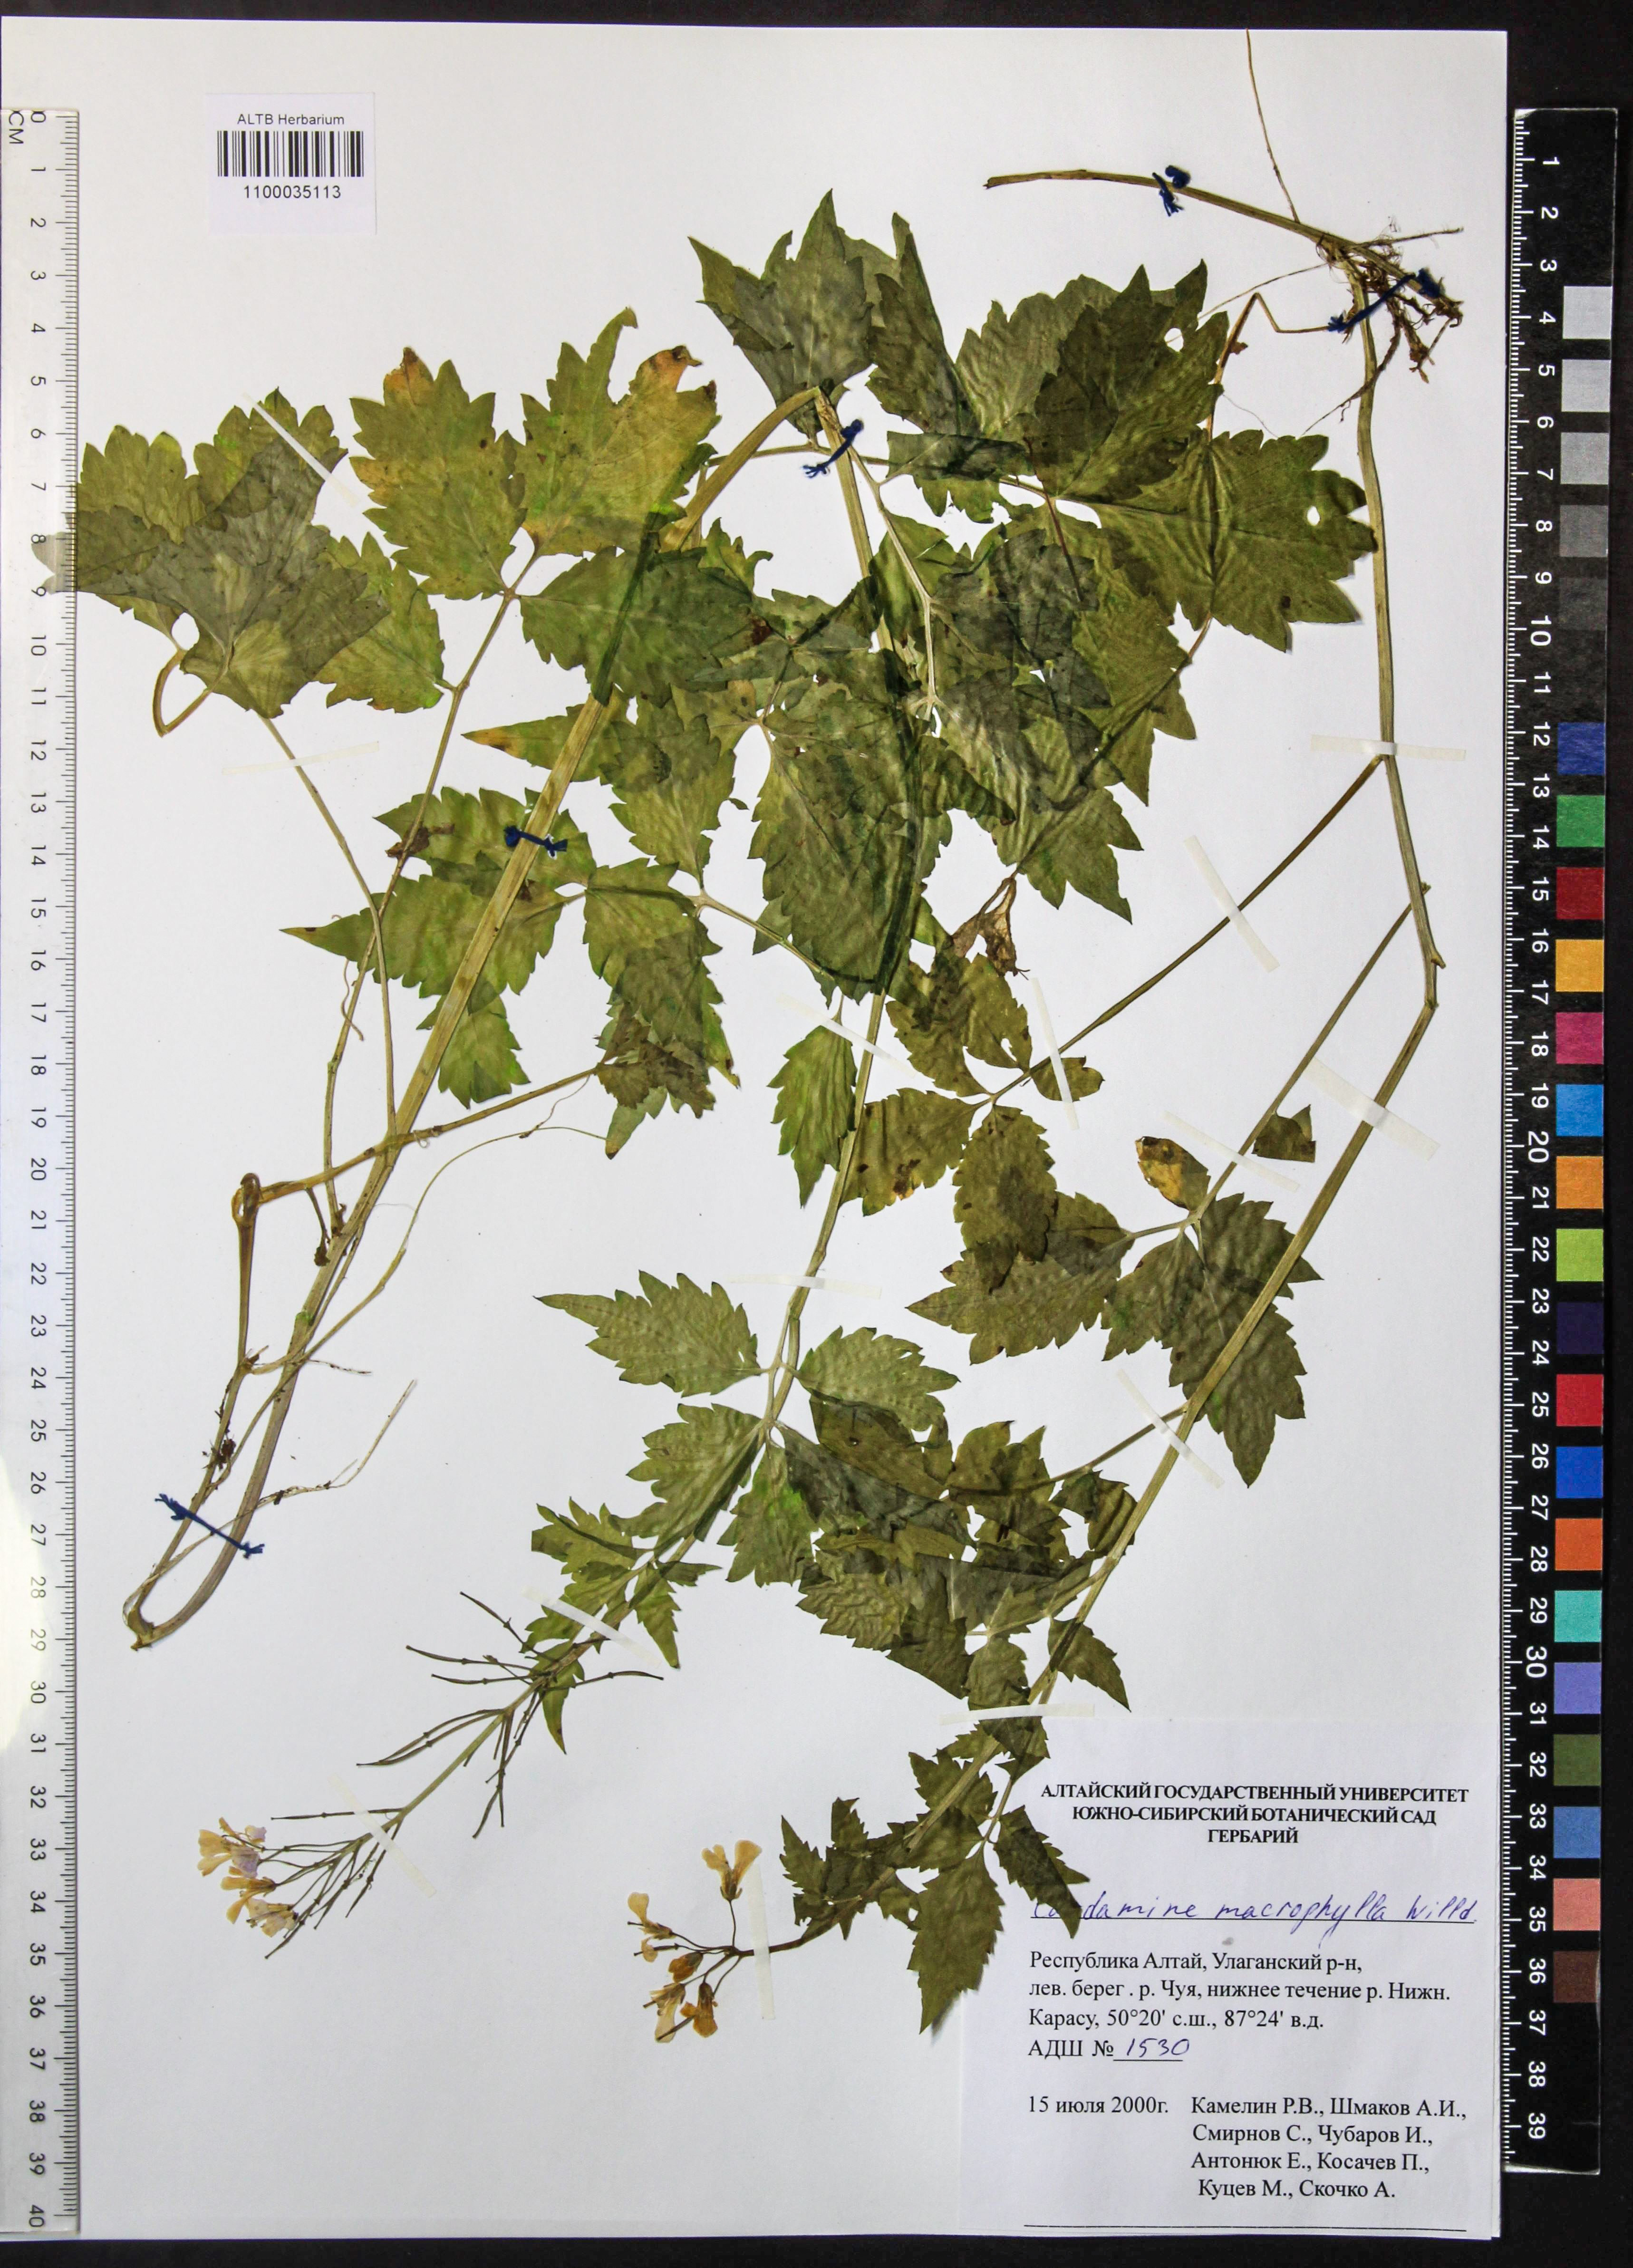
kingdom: Plantae
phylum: Tracheophyta
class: Magnoliopsida
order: Brassicales
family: Brassicaceae
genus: Cardamine
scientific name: Cardamine macrophylla
